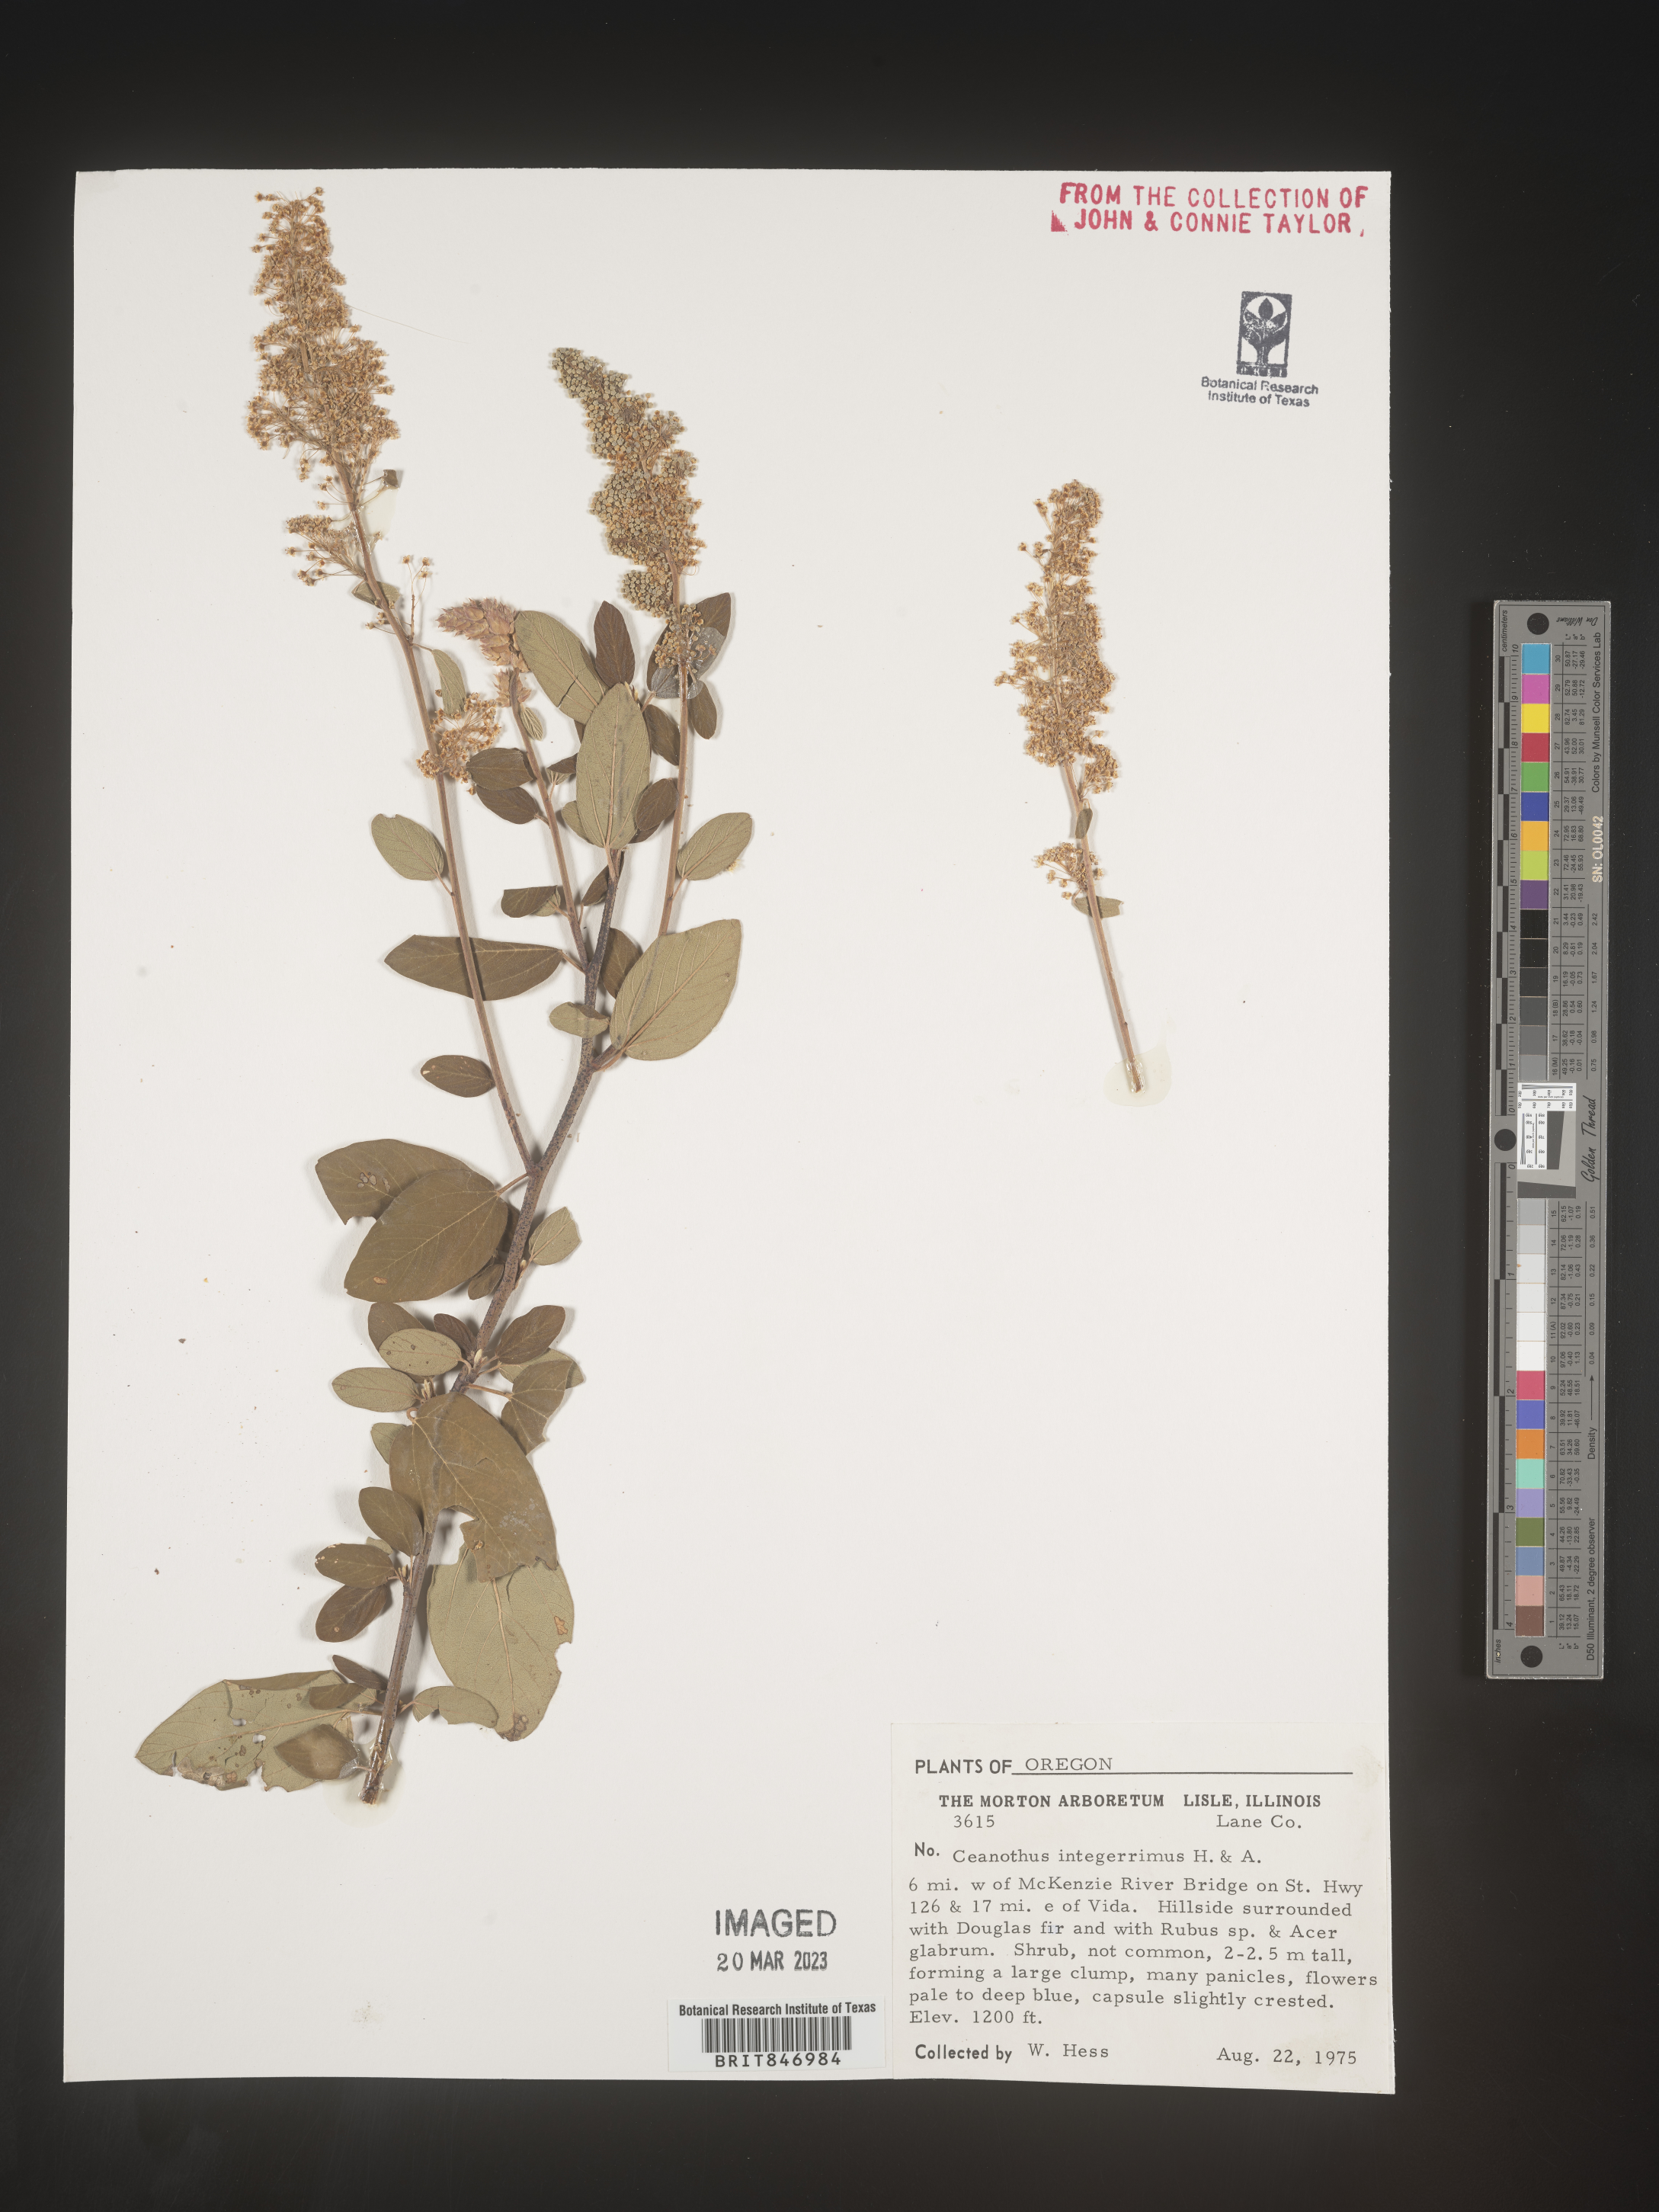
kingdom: Plantae
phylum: Tracheophyta
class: Magnoliopsida
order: Rosales
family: Rhamnaceae
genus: Ceanothus
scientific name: Ceanothus integerrimus
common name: Deerbrush ceanothus
